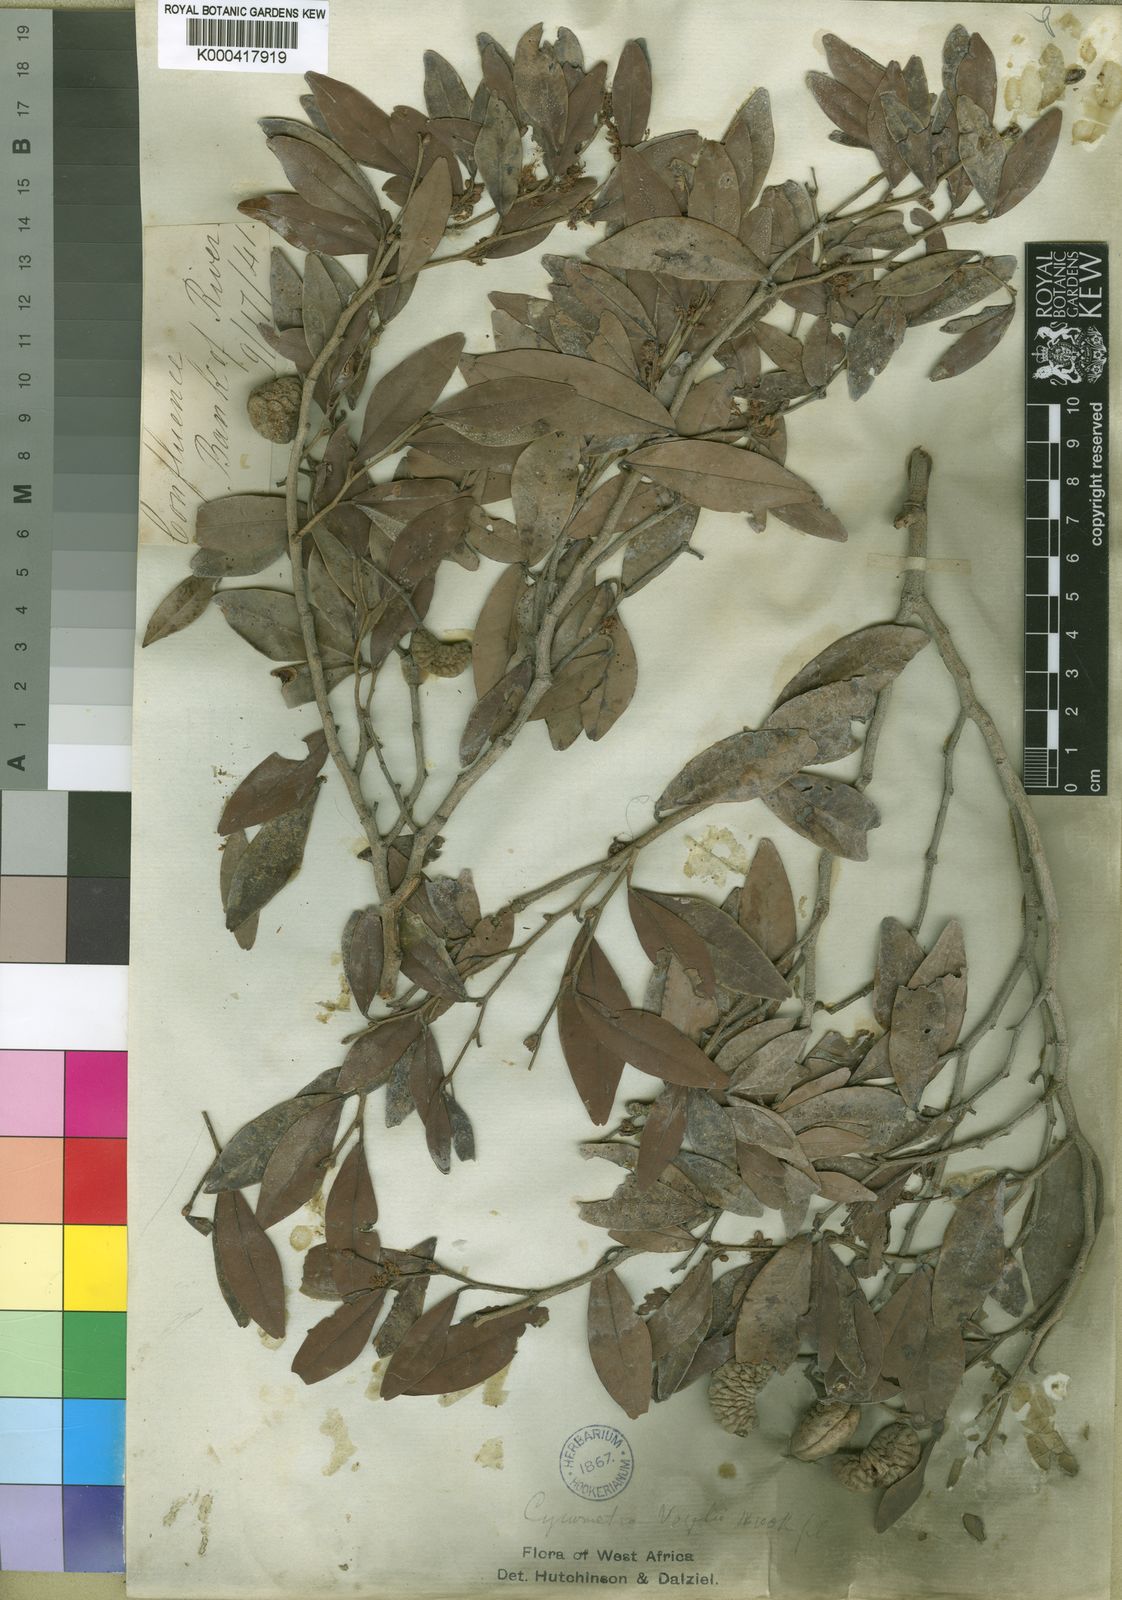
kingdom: Plantae
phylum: Tracheophyta
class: Magnoliopsida
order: Fabales
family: Fabaceae
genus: Cynometra
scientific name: Cynometra vogelii
